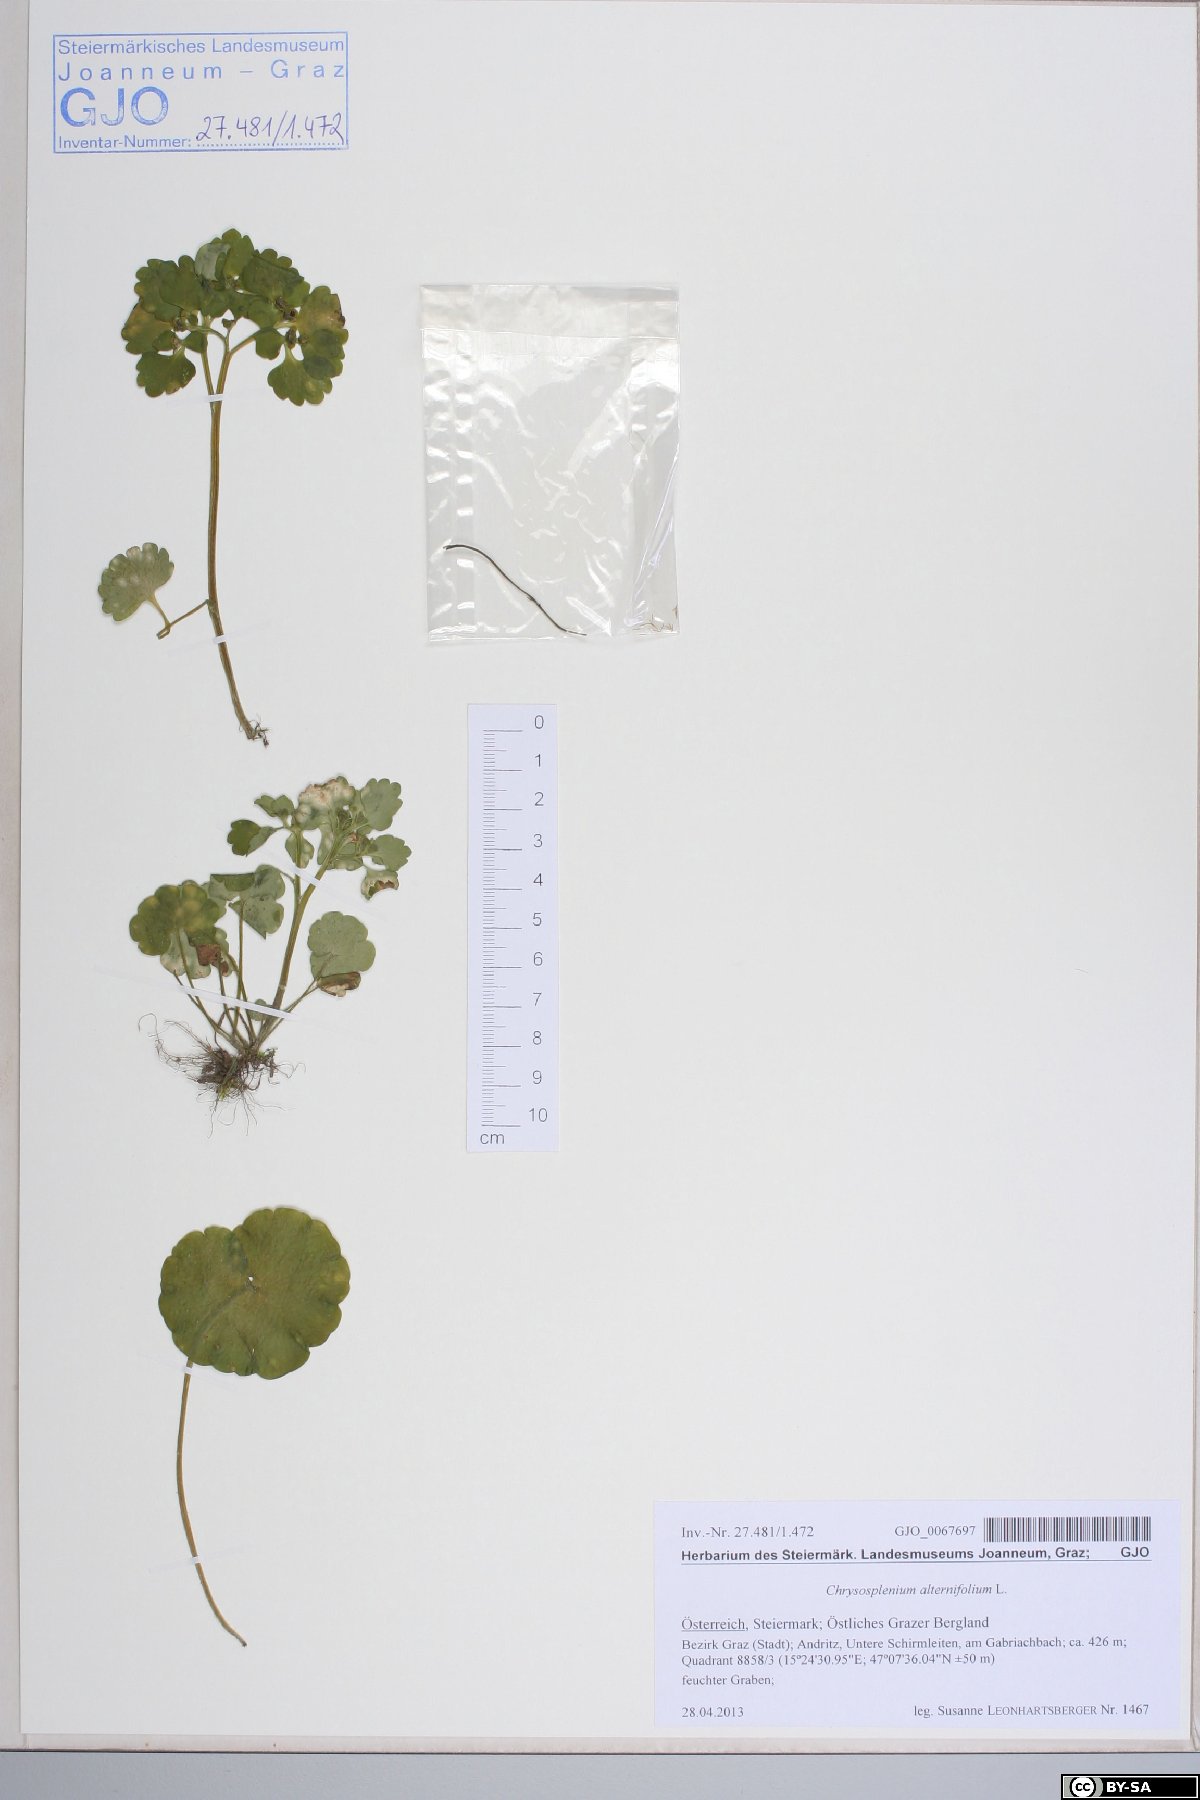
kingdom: Plantae
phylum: Tracheophyta
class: Magnoliopsida
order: Saxifragales
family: Saxifragaceae
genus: Chrysosplenium
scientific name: Chrysosplenium alternifolium
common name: Alternate-leaved golden-saxifrage
